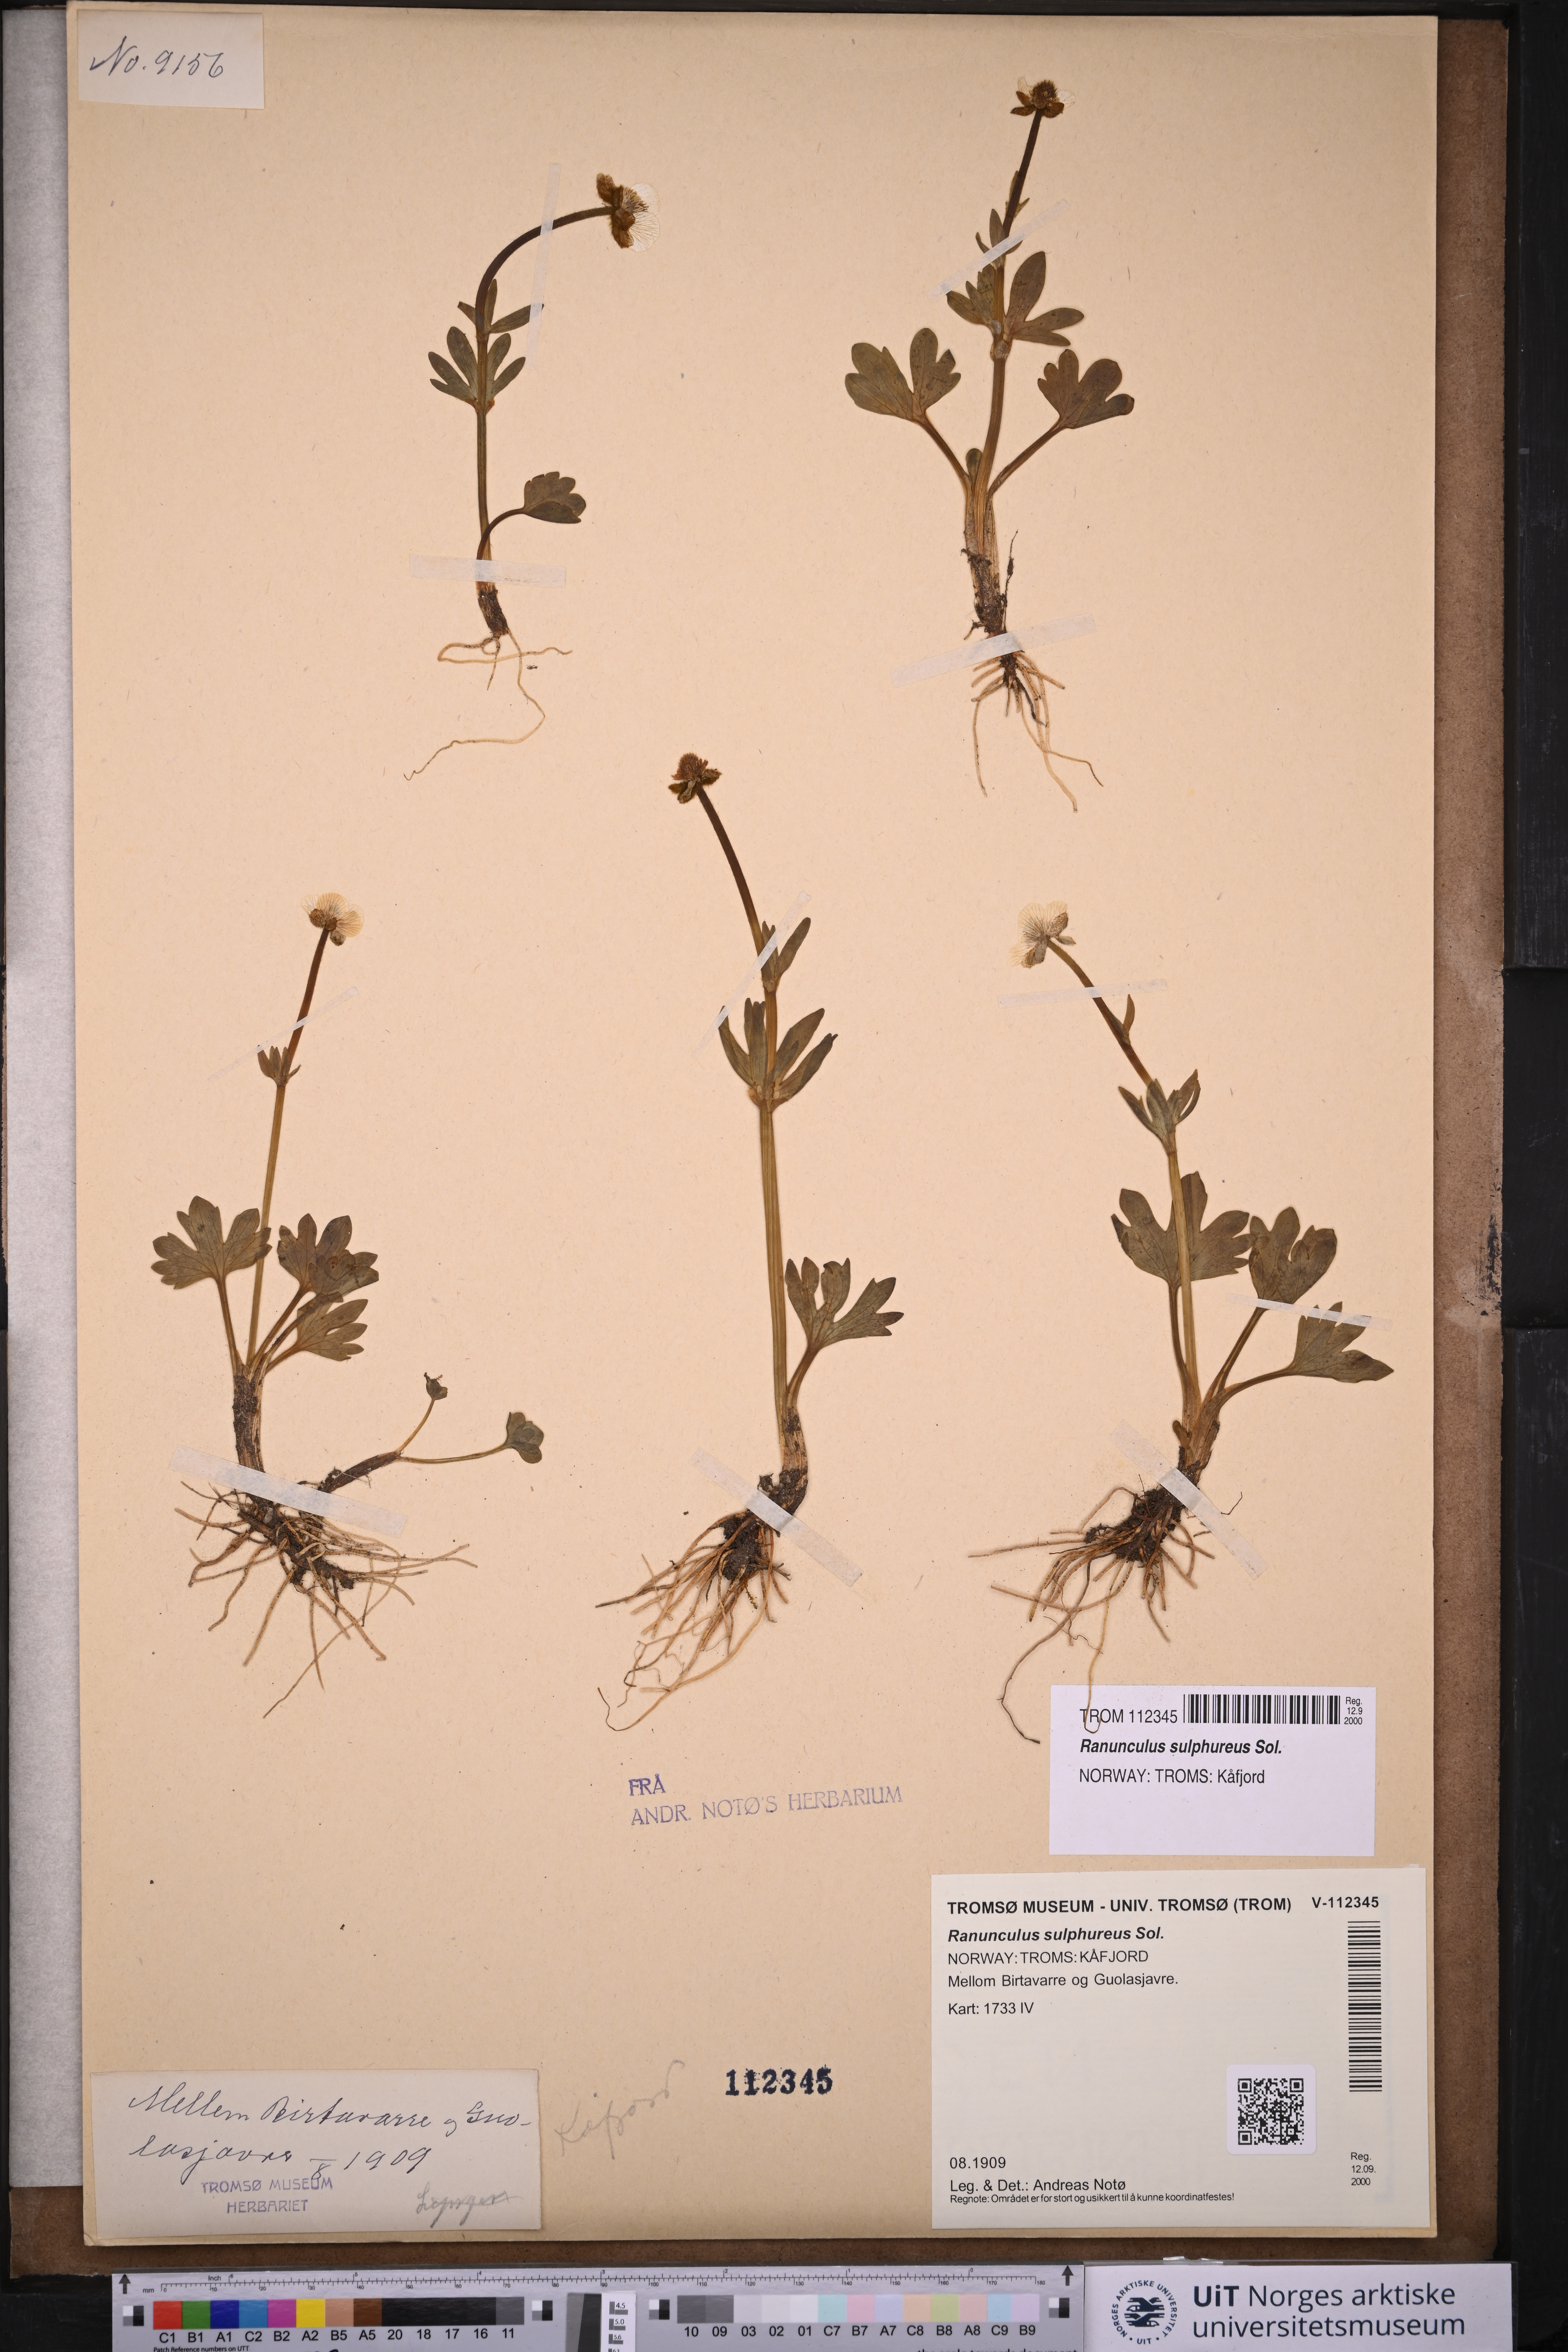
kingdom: Plantae
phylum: Tracheophyta
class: Magnoliopsida
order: Ranunculales
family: Ranunculaceae
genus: Ranunculus
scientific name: Ranunculus sulphureus
